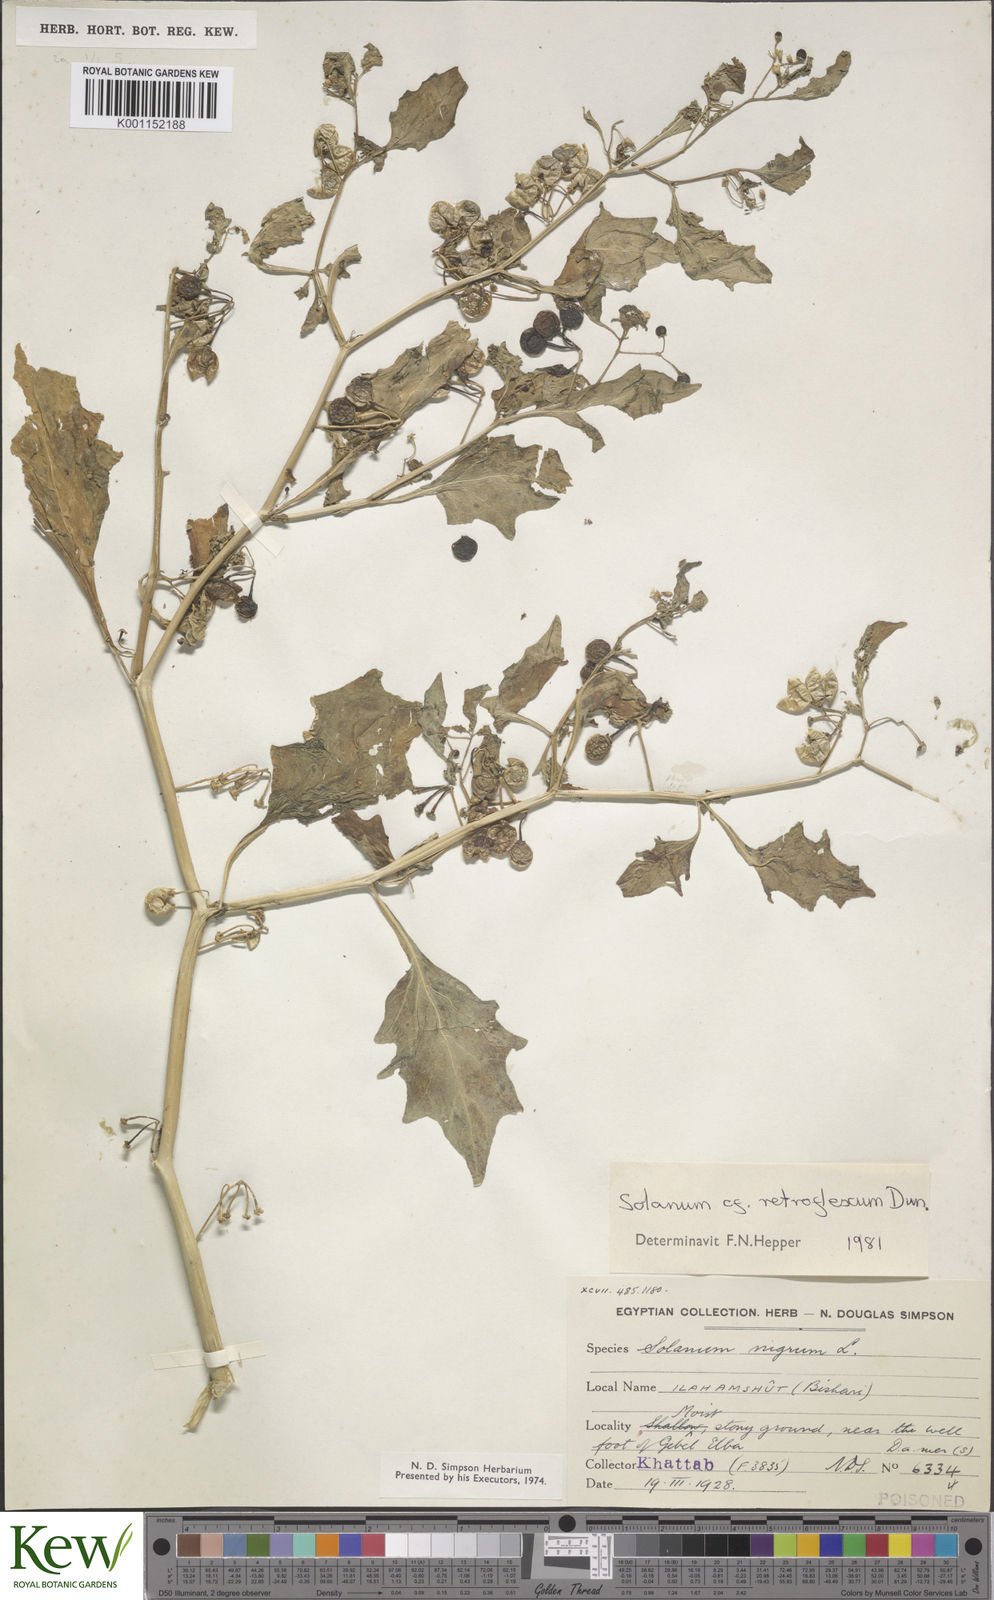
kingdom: Plantae
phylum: Tracheophyta
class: Magnoliopsida
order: Solanales
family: Solanaceae
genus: Solanum
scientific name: Solanum villosum
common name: Red nightshade
